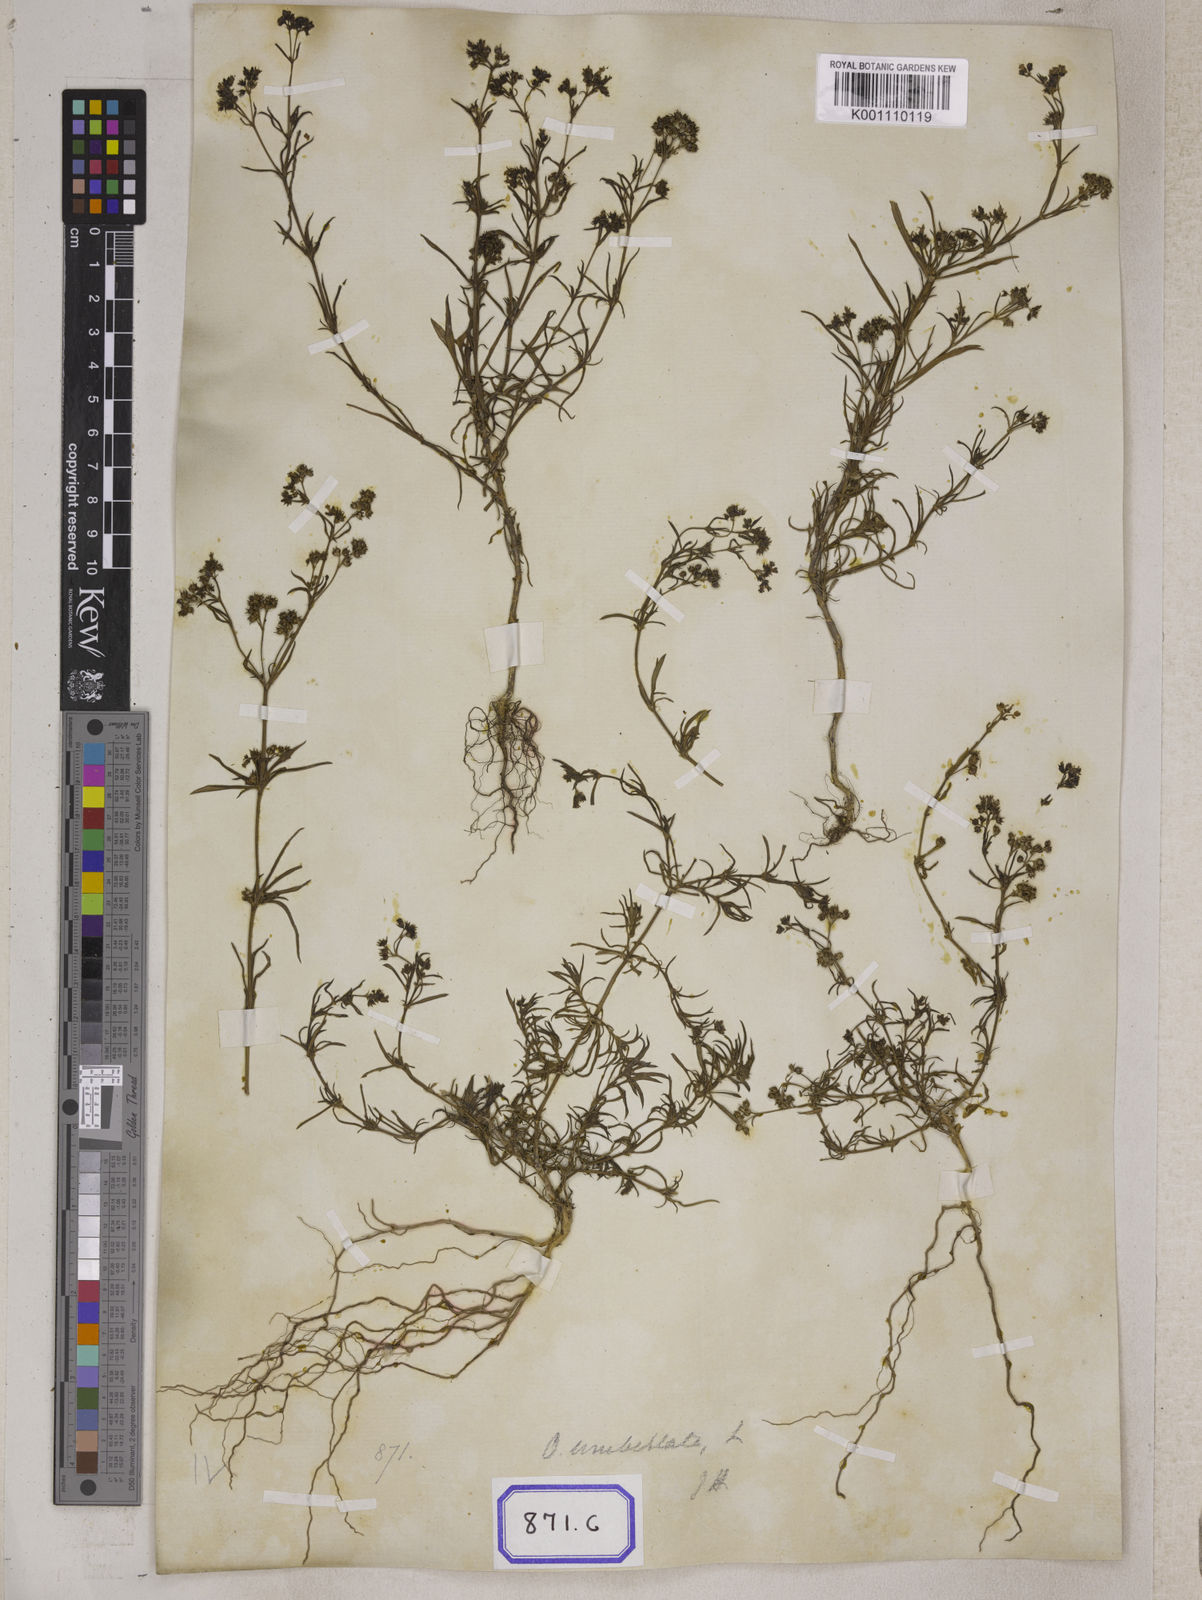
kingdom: Plantae
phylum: Tracheophyta
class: Magnoliopsida
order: Gentianales
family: Rubiaceae
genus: Oldenlandia
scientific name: Oldenlandia umbellata
